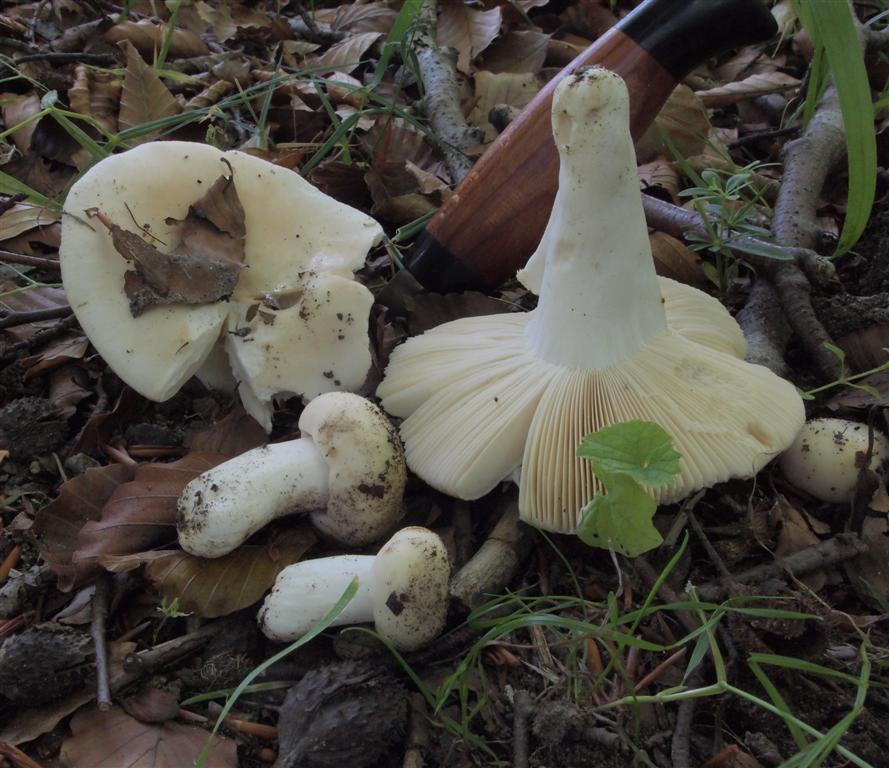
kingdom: Fungi
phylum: Basidiomycota
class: Agaricomycetes
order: Russulales
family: Russulaceae
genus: Russula
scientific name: Russula violeipes
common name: ferskengul skørhat
